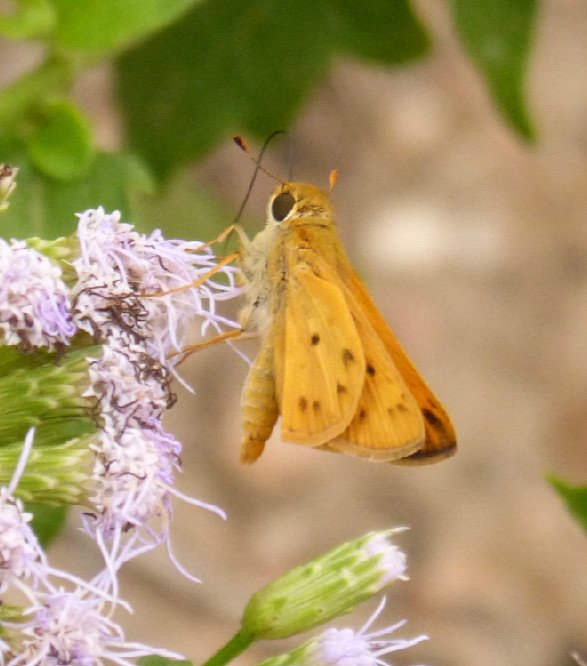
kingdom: Animalia
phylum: Arthropoda
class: Insecta
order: Lepidoptera
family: Hesperiidae
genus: Hylephila
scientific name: Hylephila phyleus
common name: Fiery Skipper
